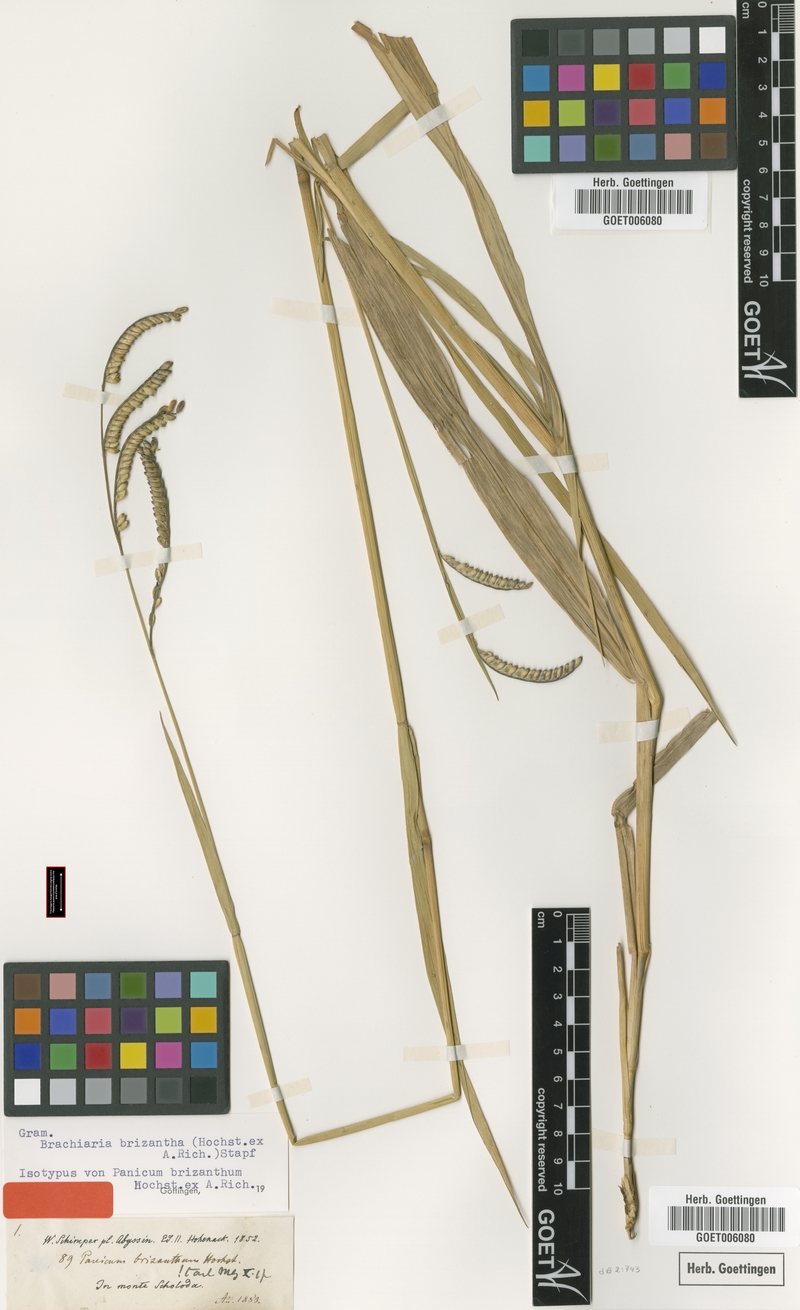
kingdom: Plantae
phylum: Tracheophyta
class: Liliopsida
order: Poales
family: Poaceae
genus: Urochloa
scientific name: Urochloa brizantha
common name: Palisade signalgrass
